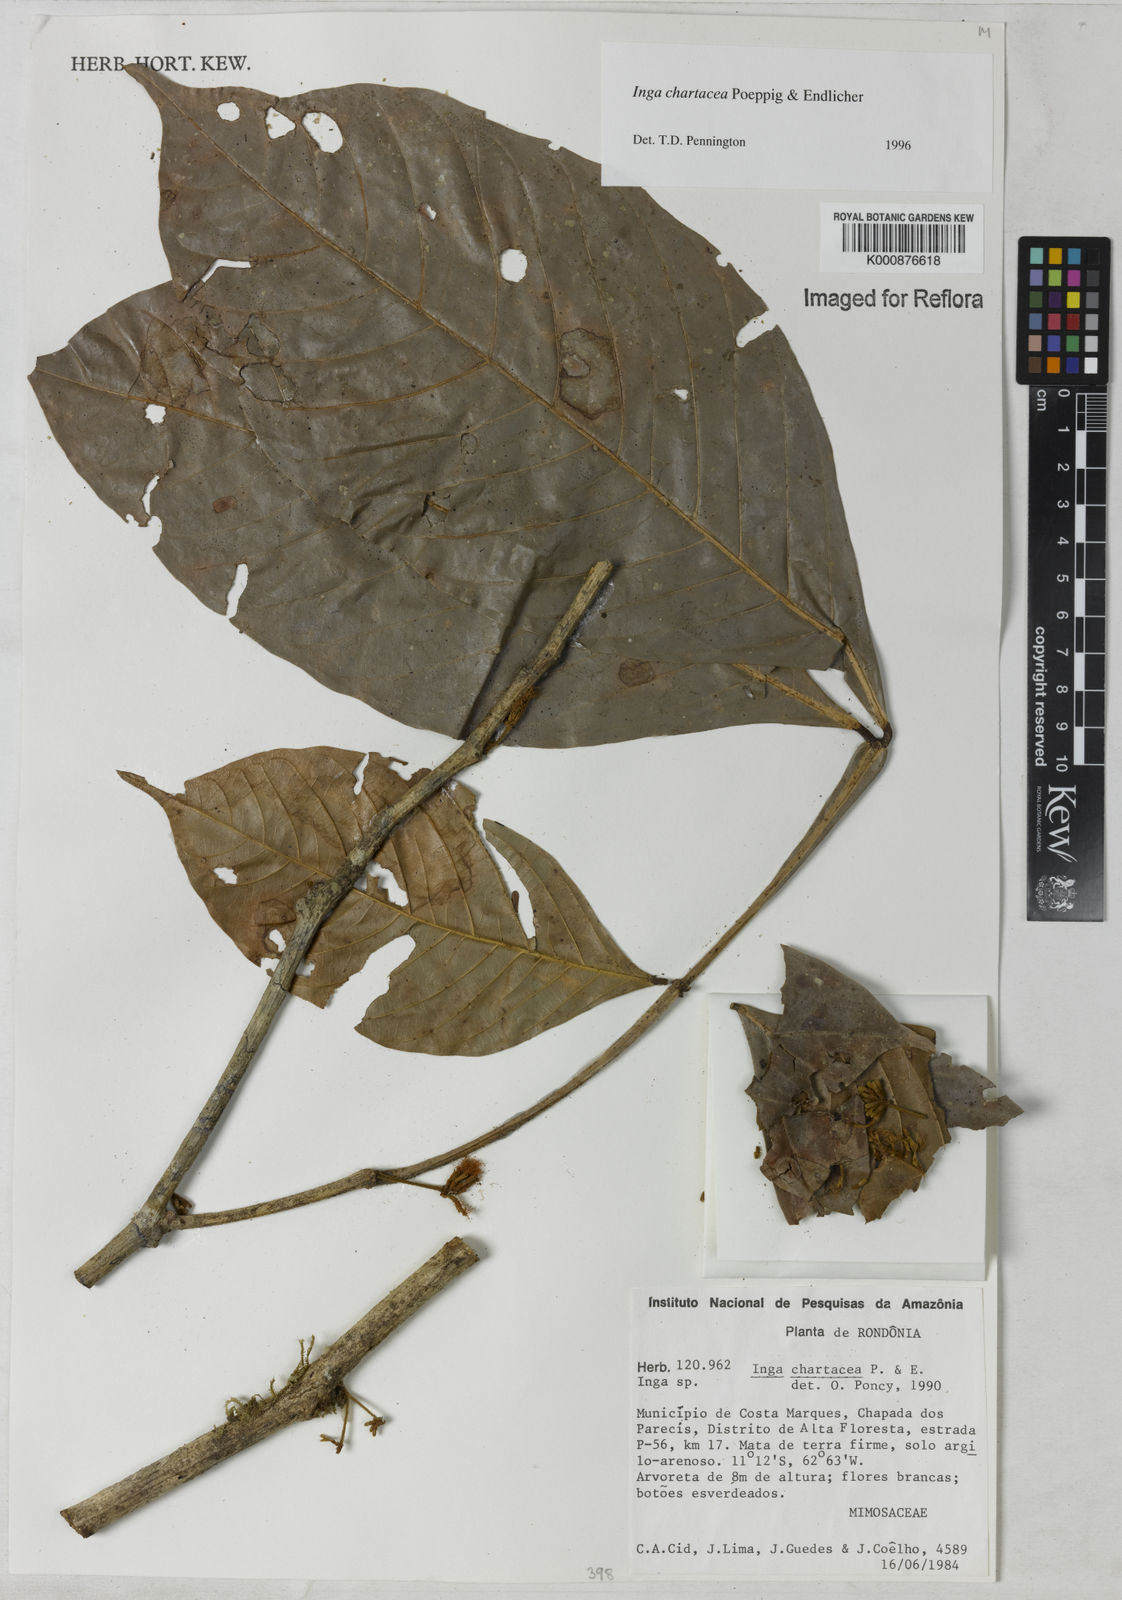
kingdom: Plantae
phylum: Tracheophyta
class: Magnoliopsida
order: Fabales
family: Fabaceae
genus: Inga
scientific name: Inga chartacea
